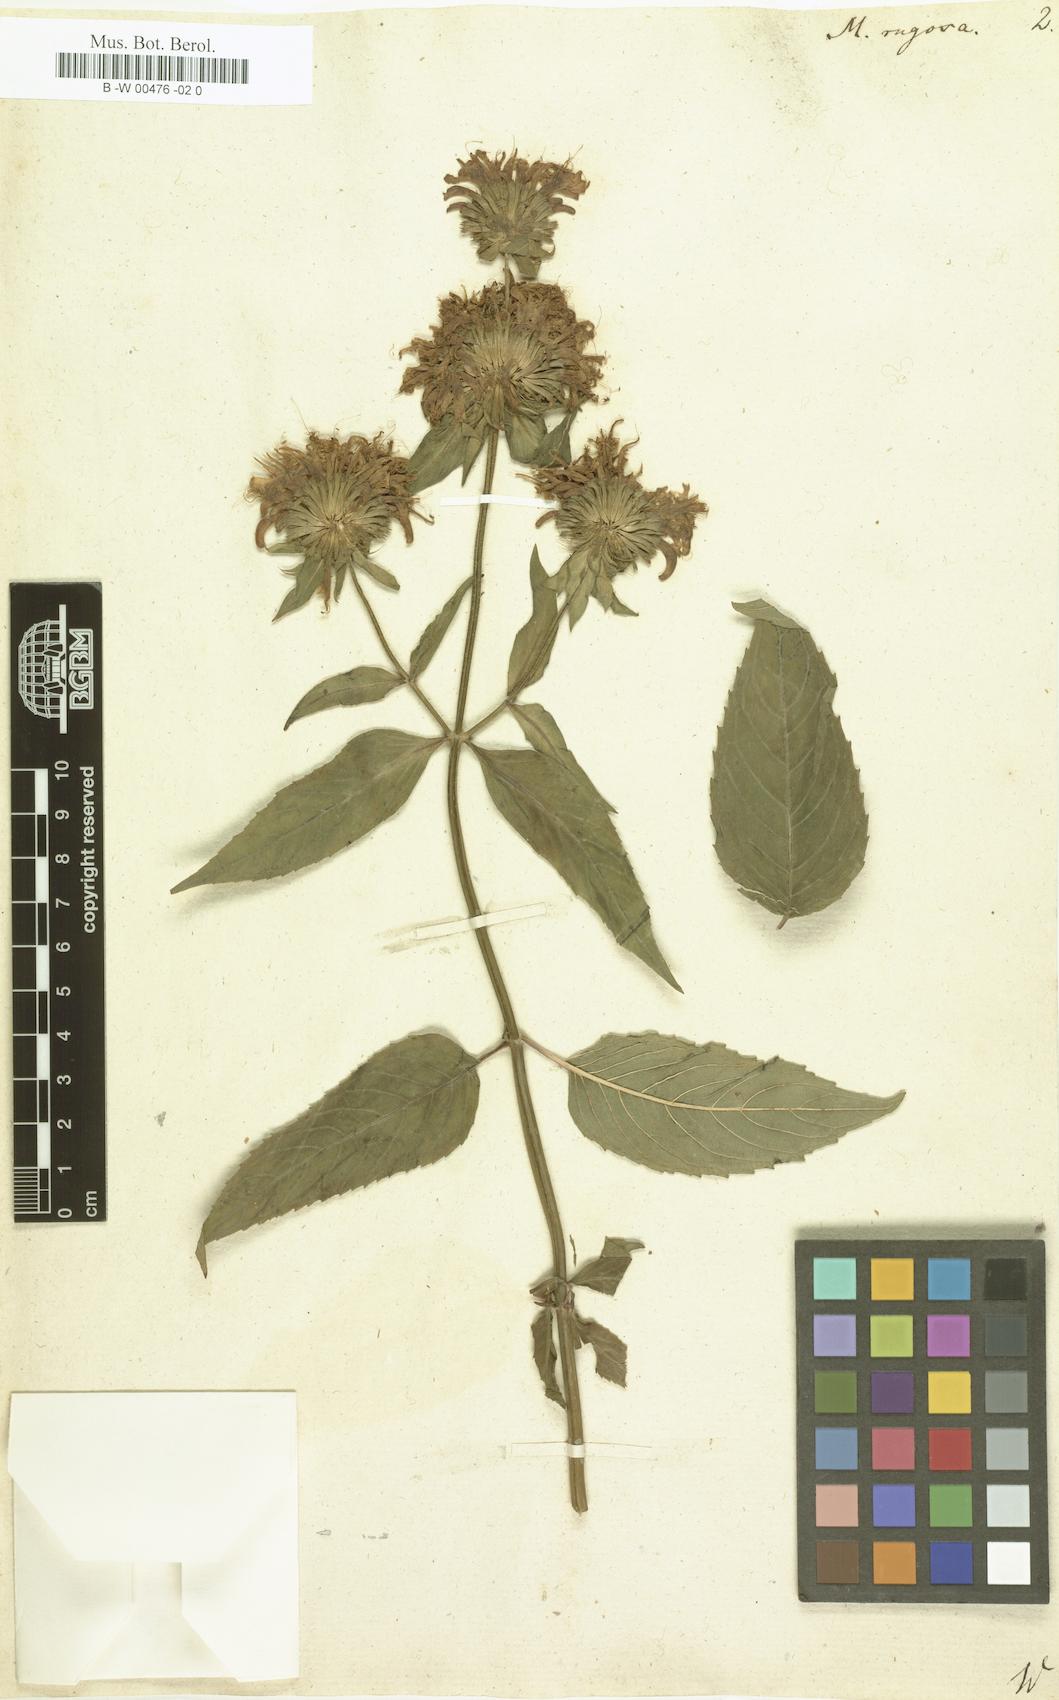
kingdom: Plantae
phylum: Tracheophyta
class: Magnoliopsida
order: Lamiales
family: Lamiaceae
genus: Monarda
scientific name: Monarda clinopodia
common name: Basil beebalm
